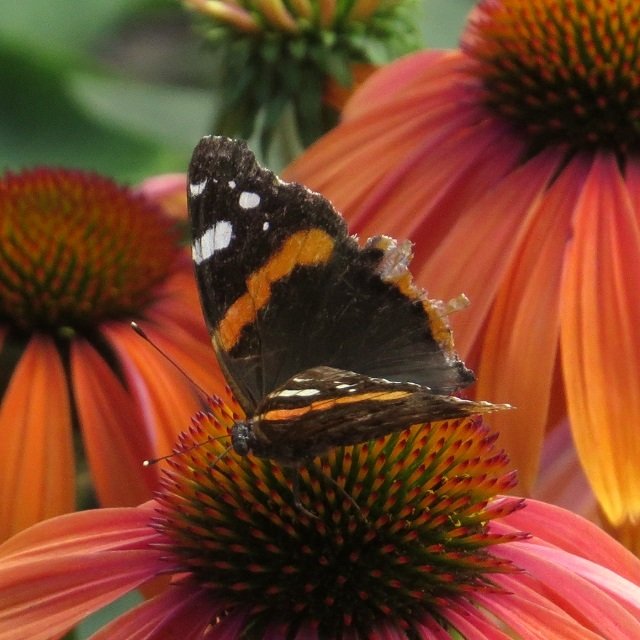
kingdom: Animalia
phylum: Arthropoda
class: Insecta
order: Lepidoptera
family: Nymphalidae
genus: Vanessa
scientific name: Vanessa atalanta
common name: Red Admiral
